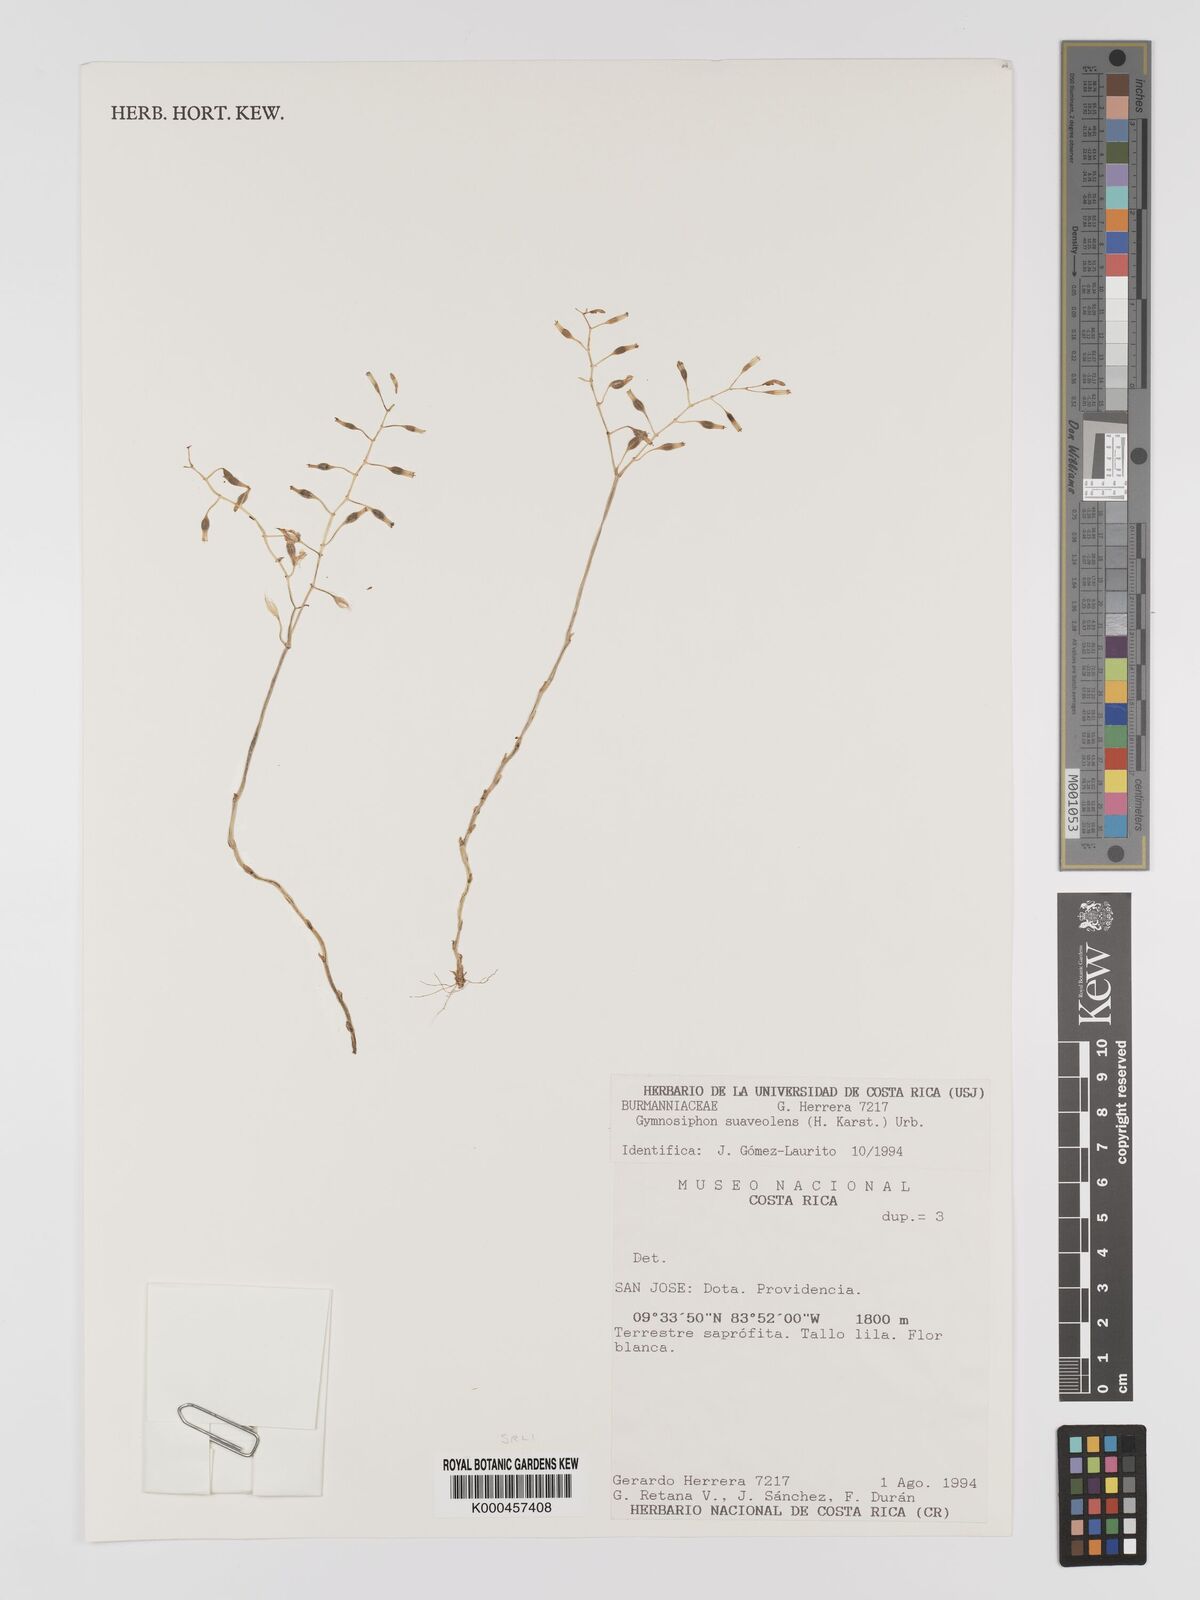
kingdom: Plantae
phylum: Tracheophyta
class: Liliopsida
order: Dioscoreales
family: Burmanniaceae
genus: Gymnosiphon
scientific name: Gymnosiphon suaveolens
